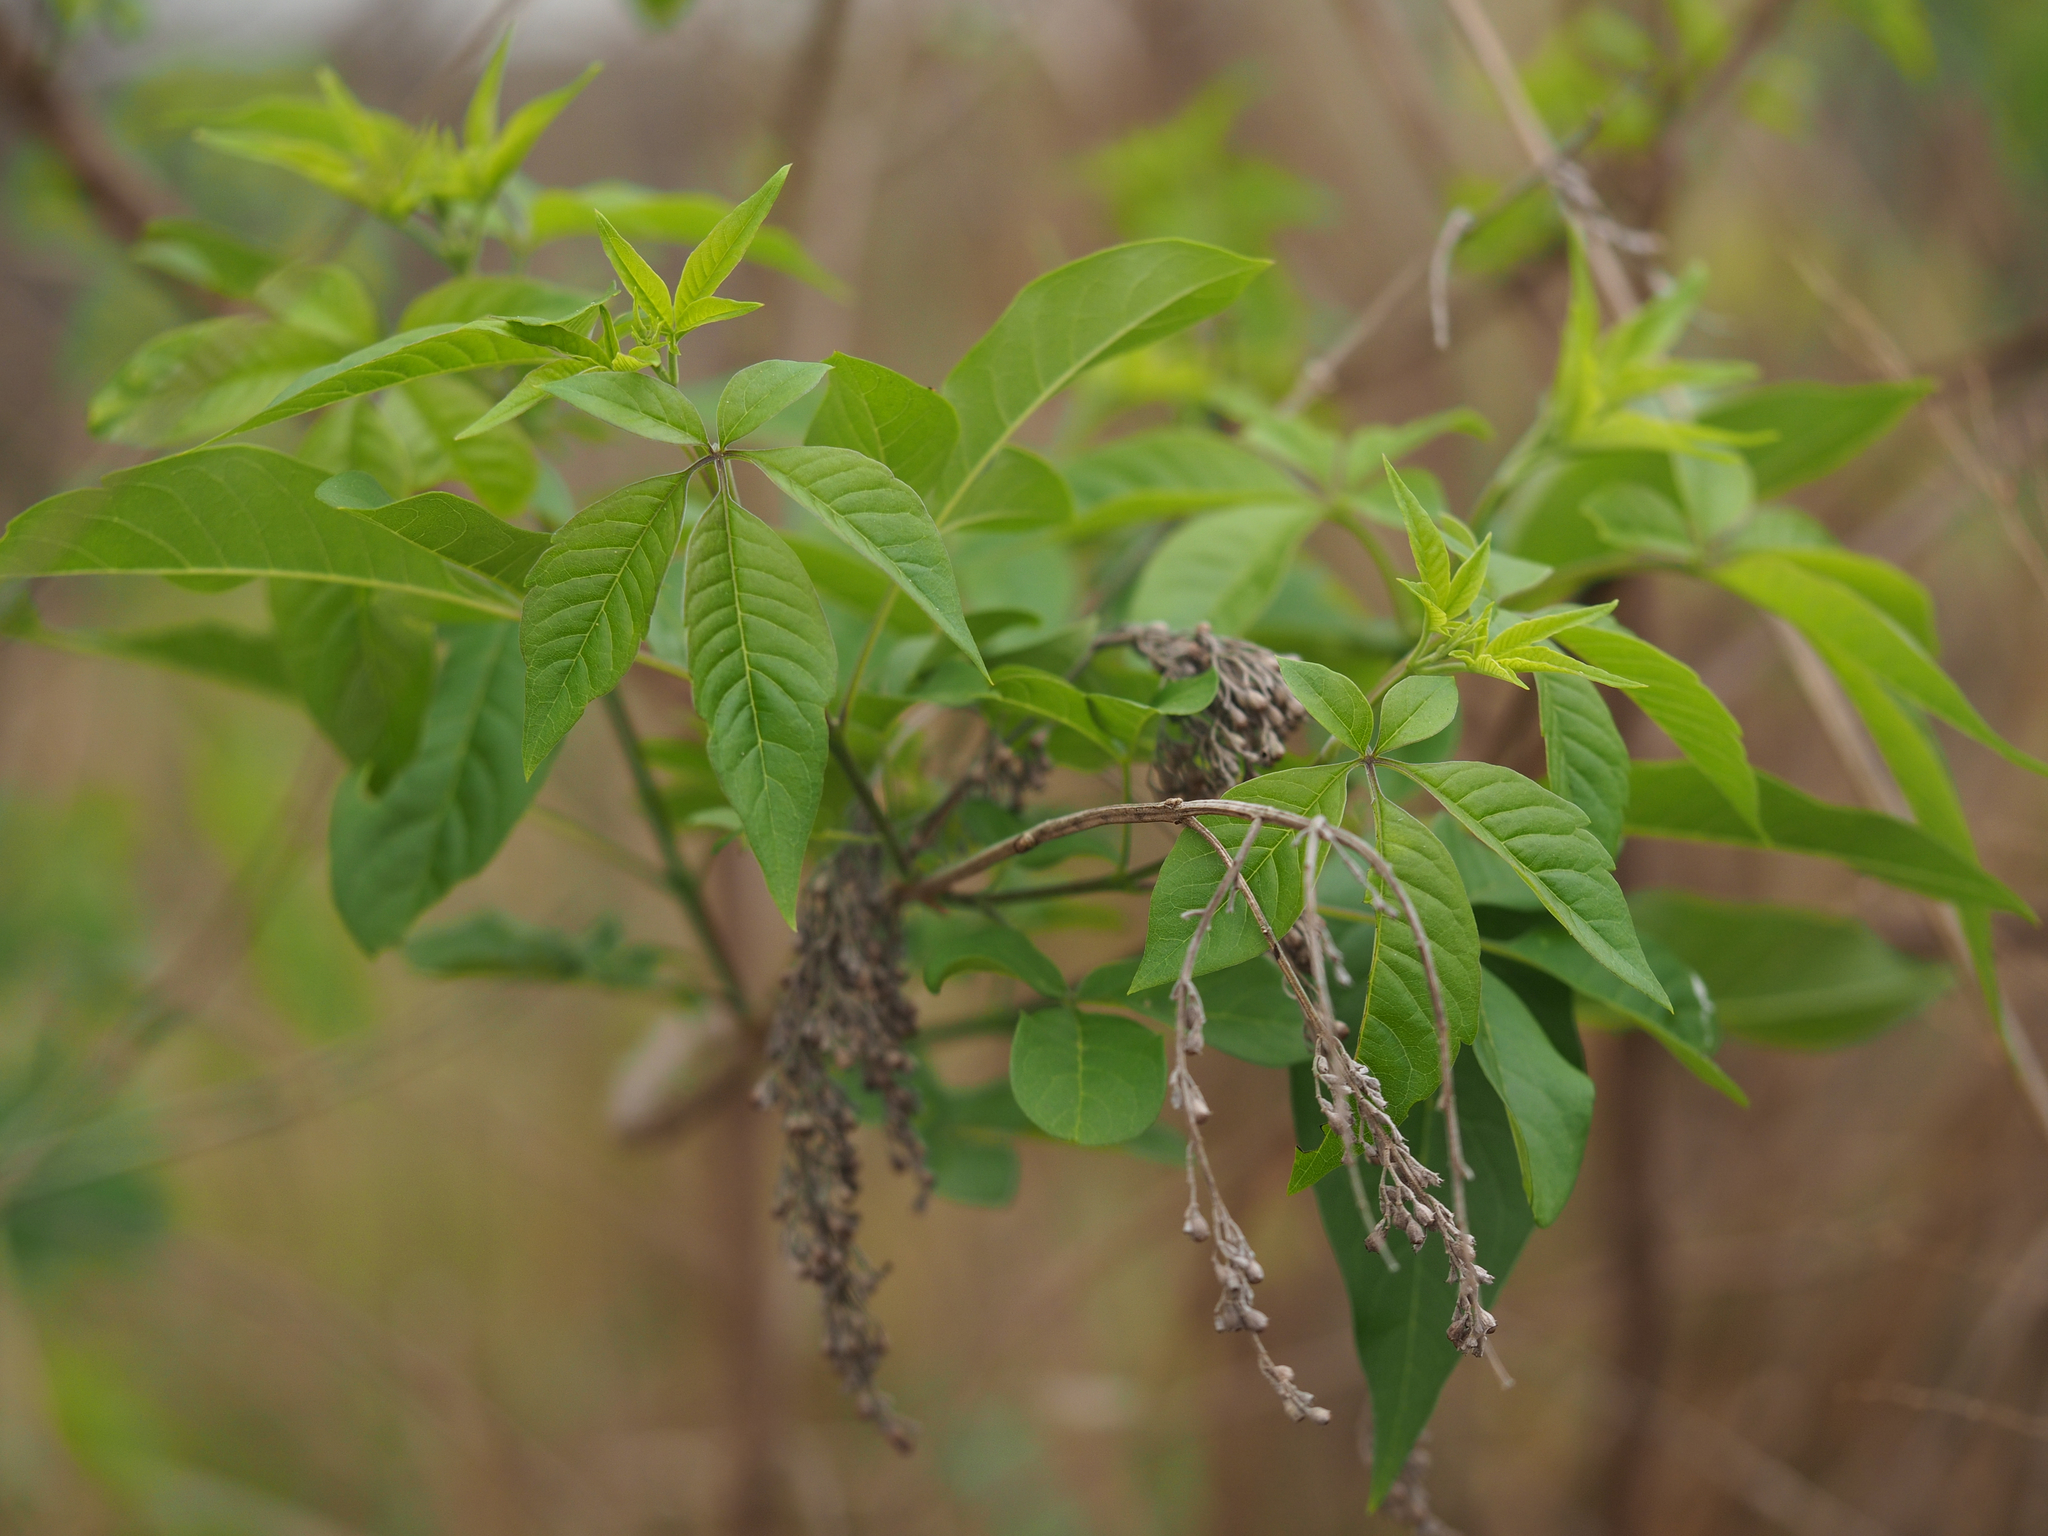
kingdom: Plantae
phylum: Tracheophyta
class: Magnoliopsida
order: Lamiales
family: Lamiaceae
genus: Vitex
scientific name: Vitex negundo
